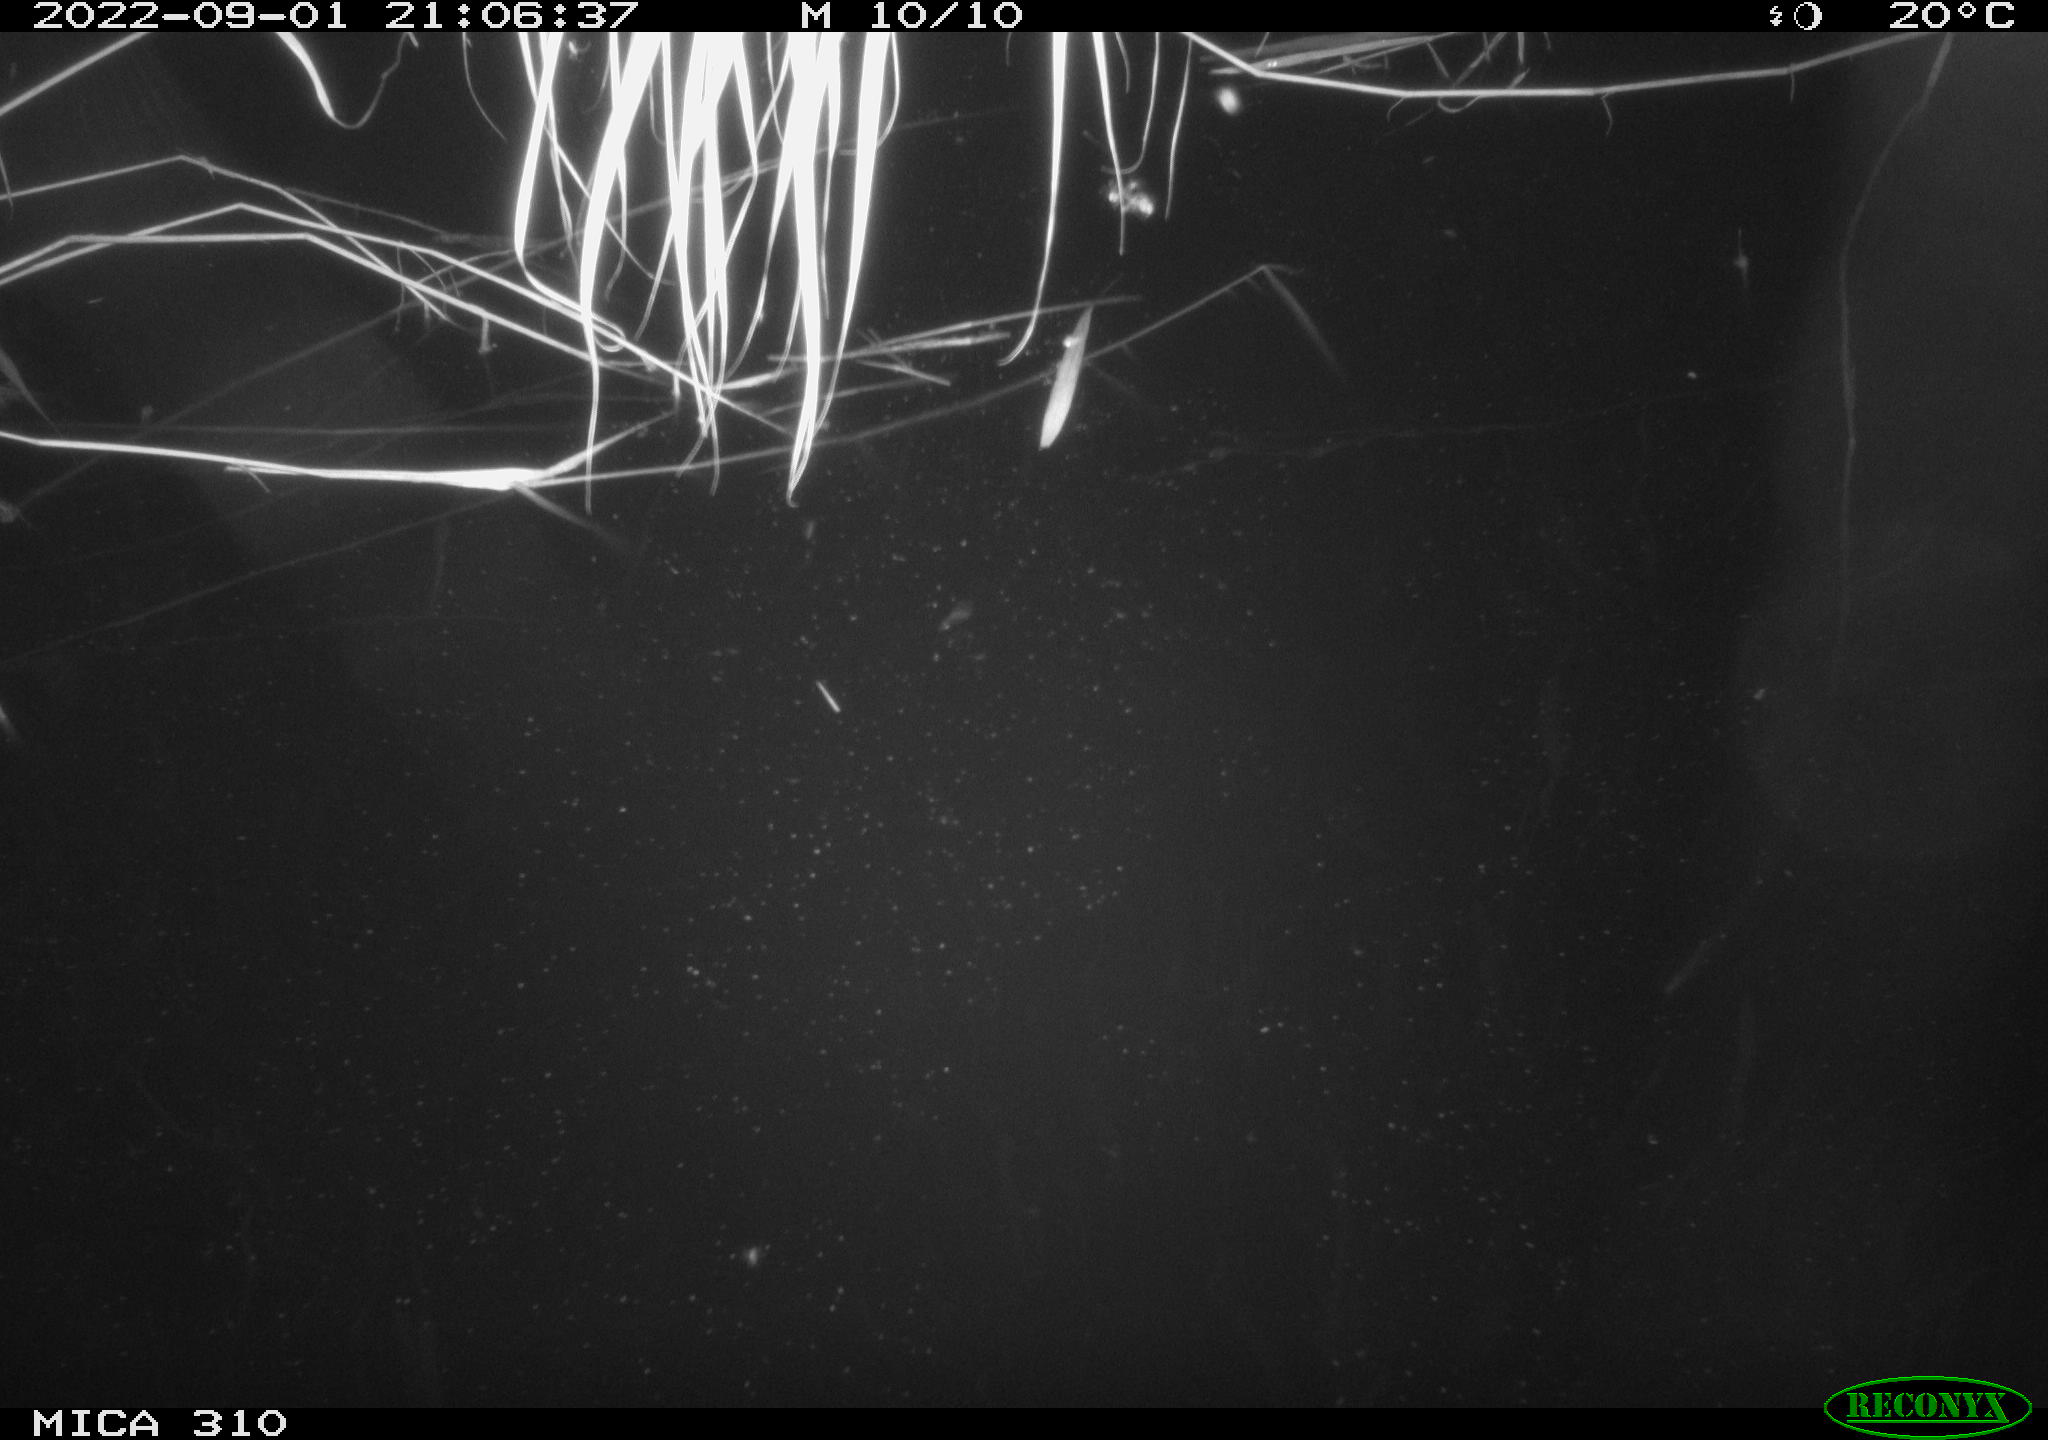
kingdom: Animalia
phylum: Chordata
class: Aves
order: Anseriformes
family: Anatidae
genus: Anas
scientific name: Anas platyrhynchos
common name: Mallard
